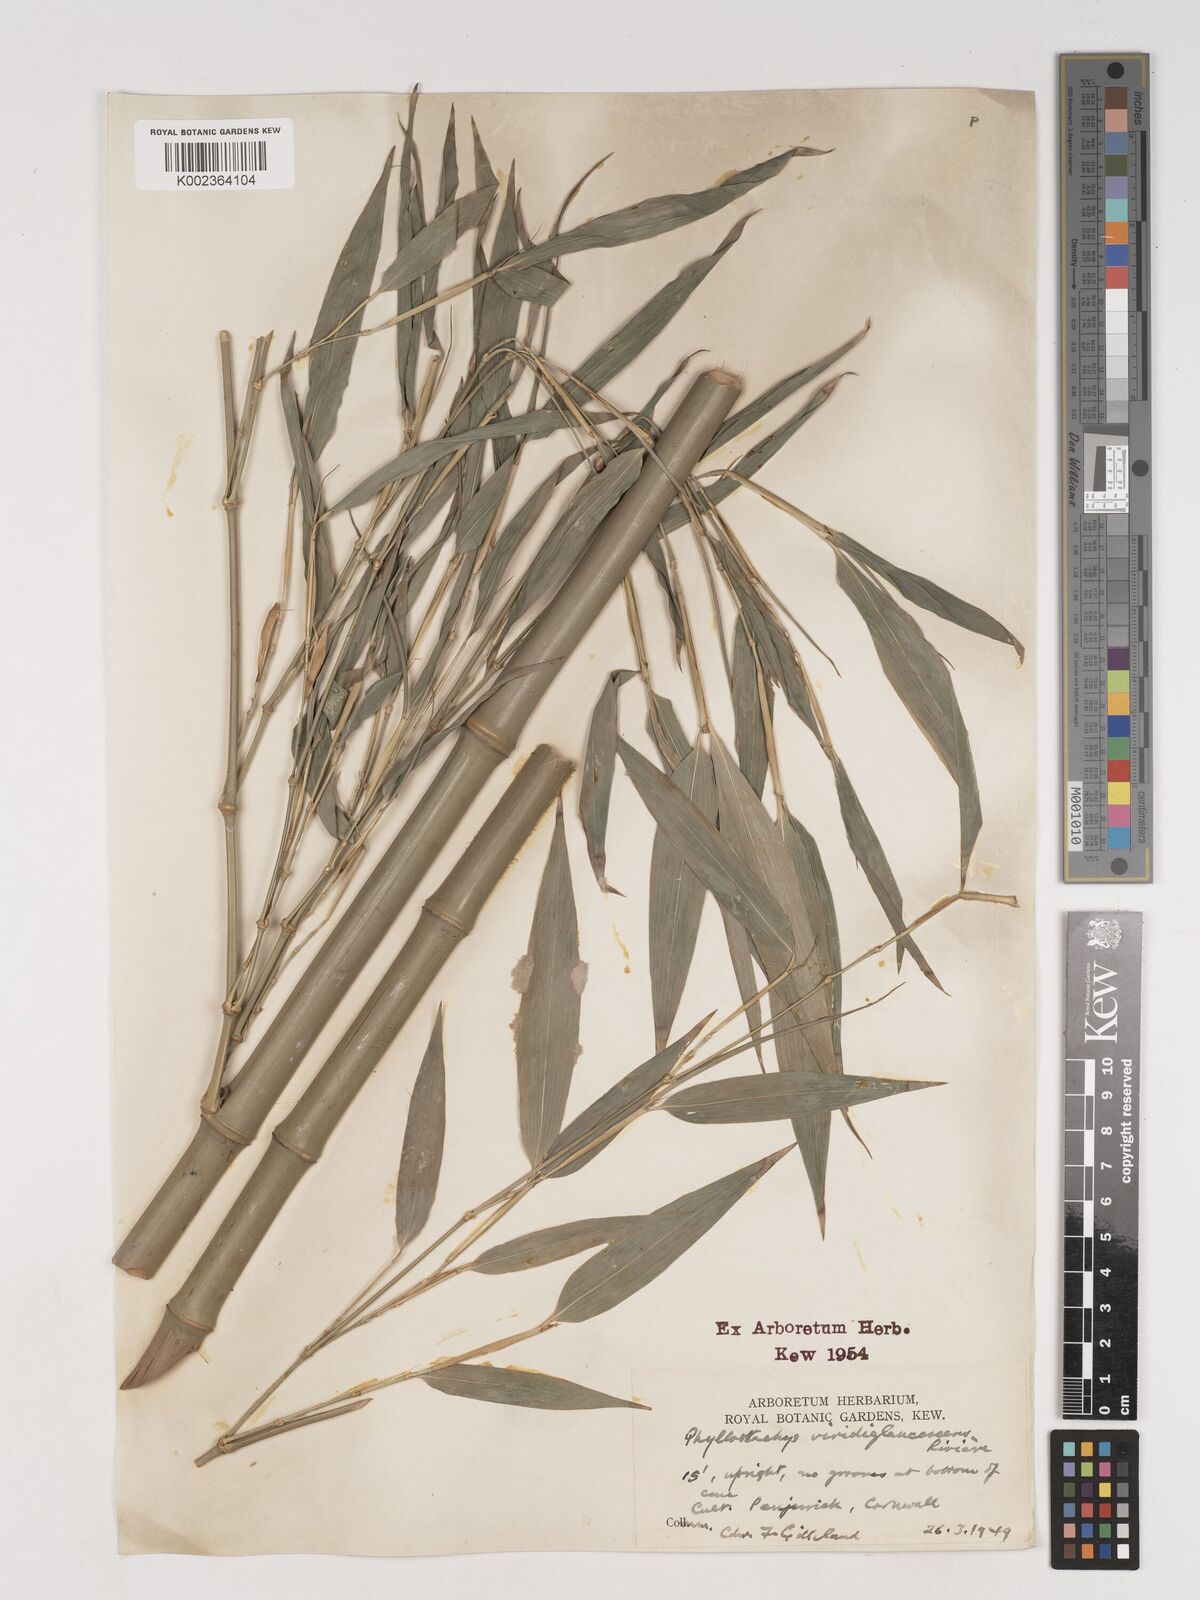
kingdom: Plantae
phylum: Tracheophyta
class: Liliopsida
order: Poales
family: Poaceae
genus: Phyllostachys
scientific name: Phyllostachys viridiglaucescens
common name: Greenwax golden bamboo
